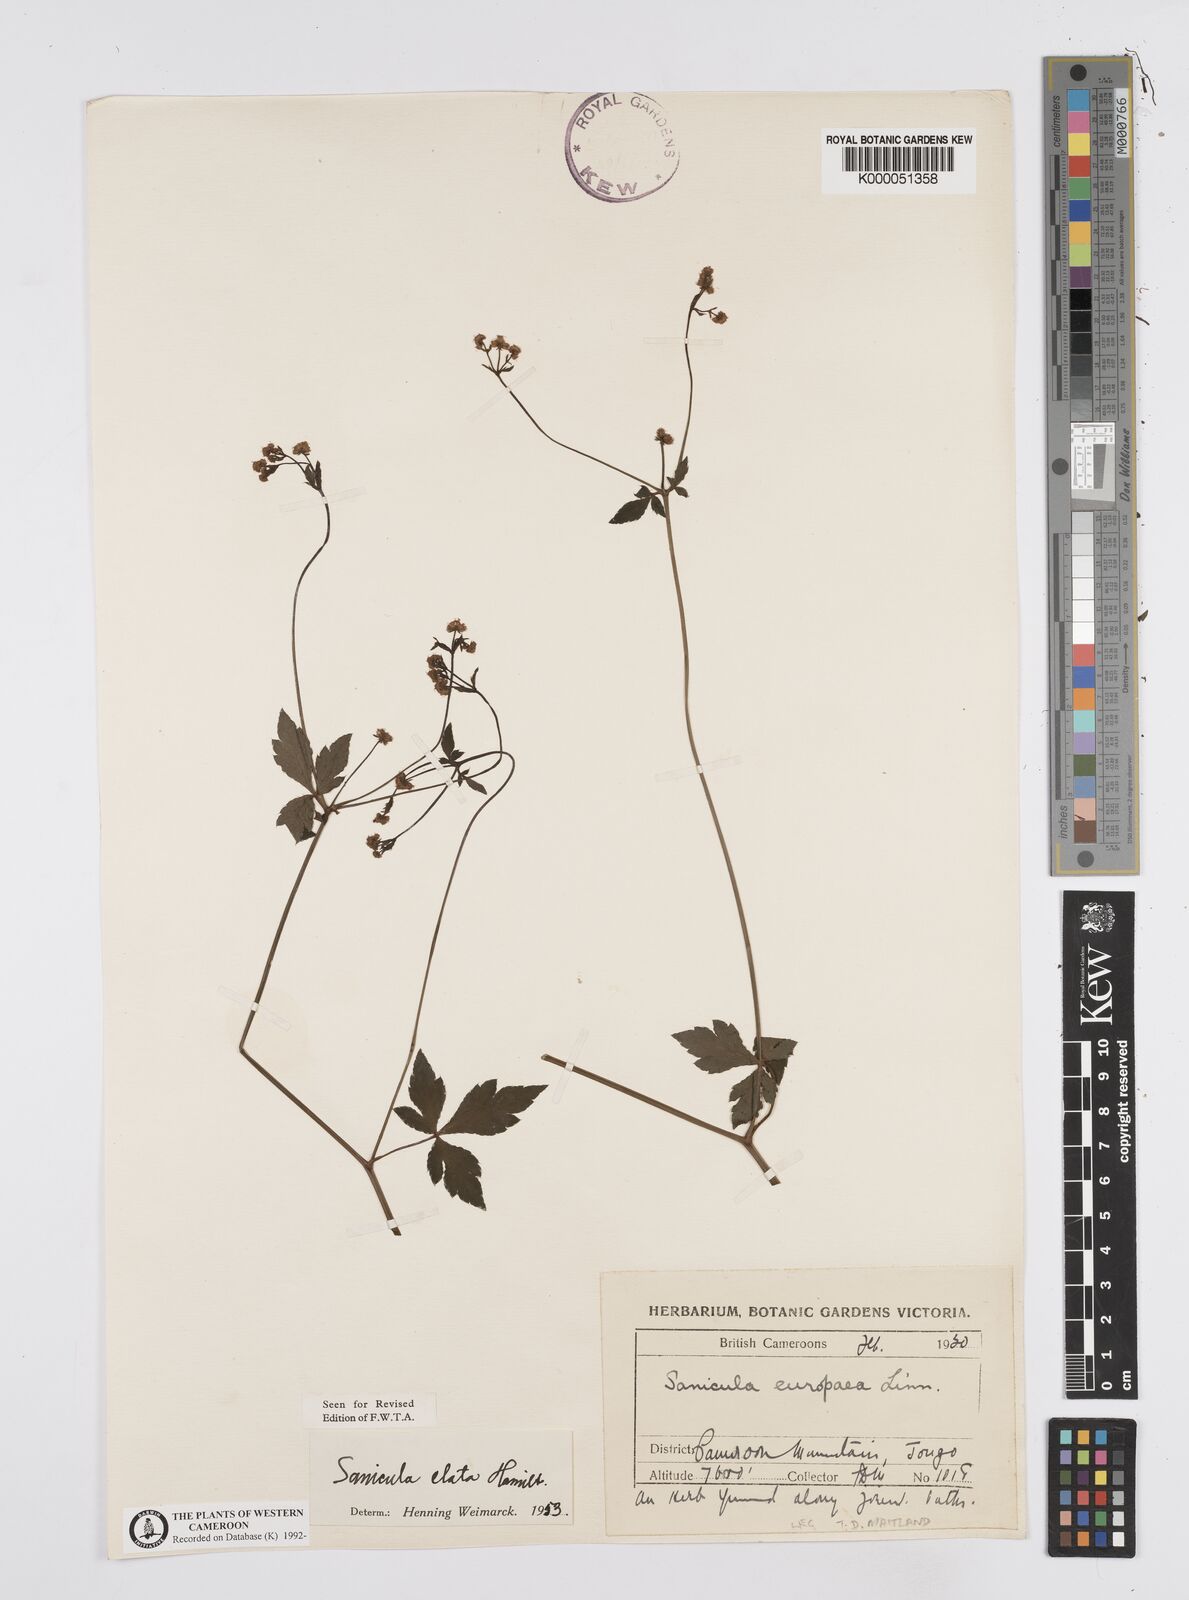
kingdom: Plantae
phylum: Tracheophyta
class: Magnoliopsida
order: Apiales
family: Apiaceae
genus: Sanicula
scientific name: Sanicula
